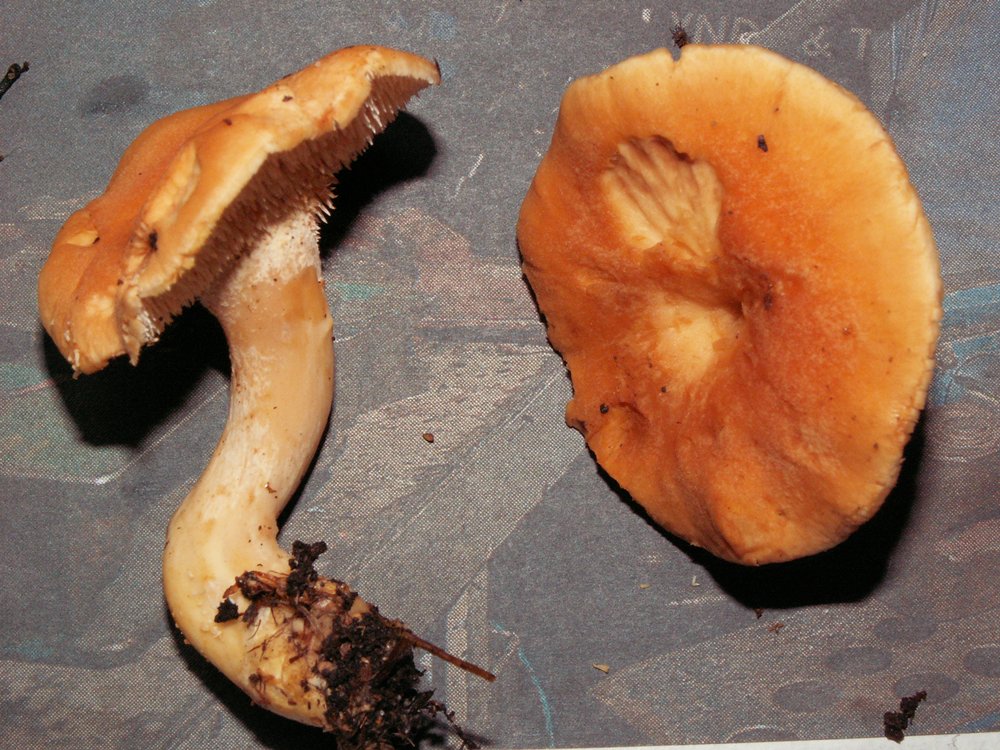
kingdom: Fungi
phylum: Basidiomycota
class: Agaricomycetes
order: Cantharellales
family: Hydnaceae
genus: Hydnum
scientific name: Hydnum rufescens
